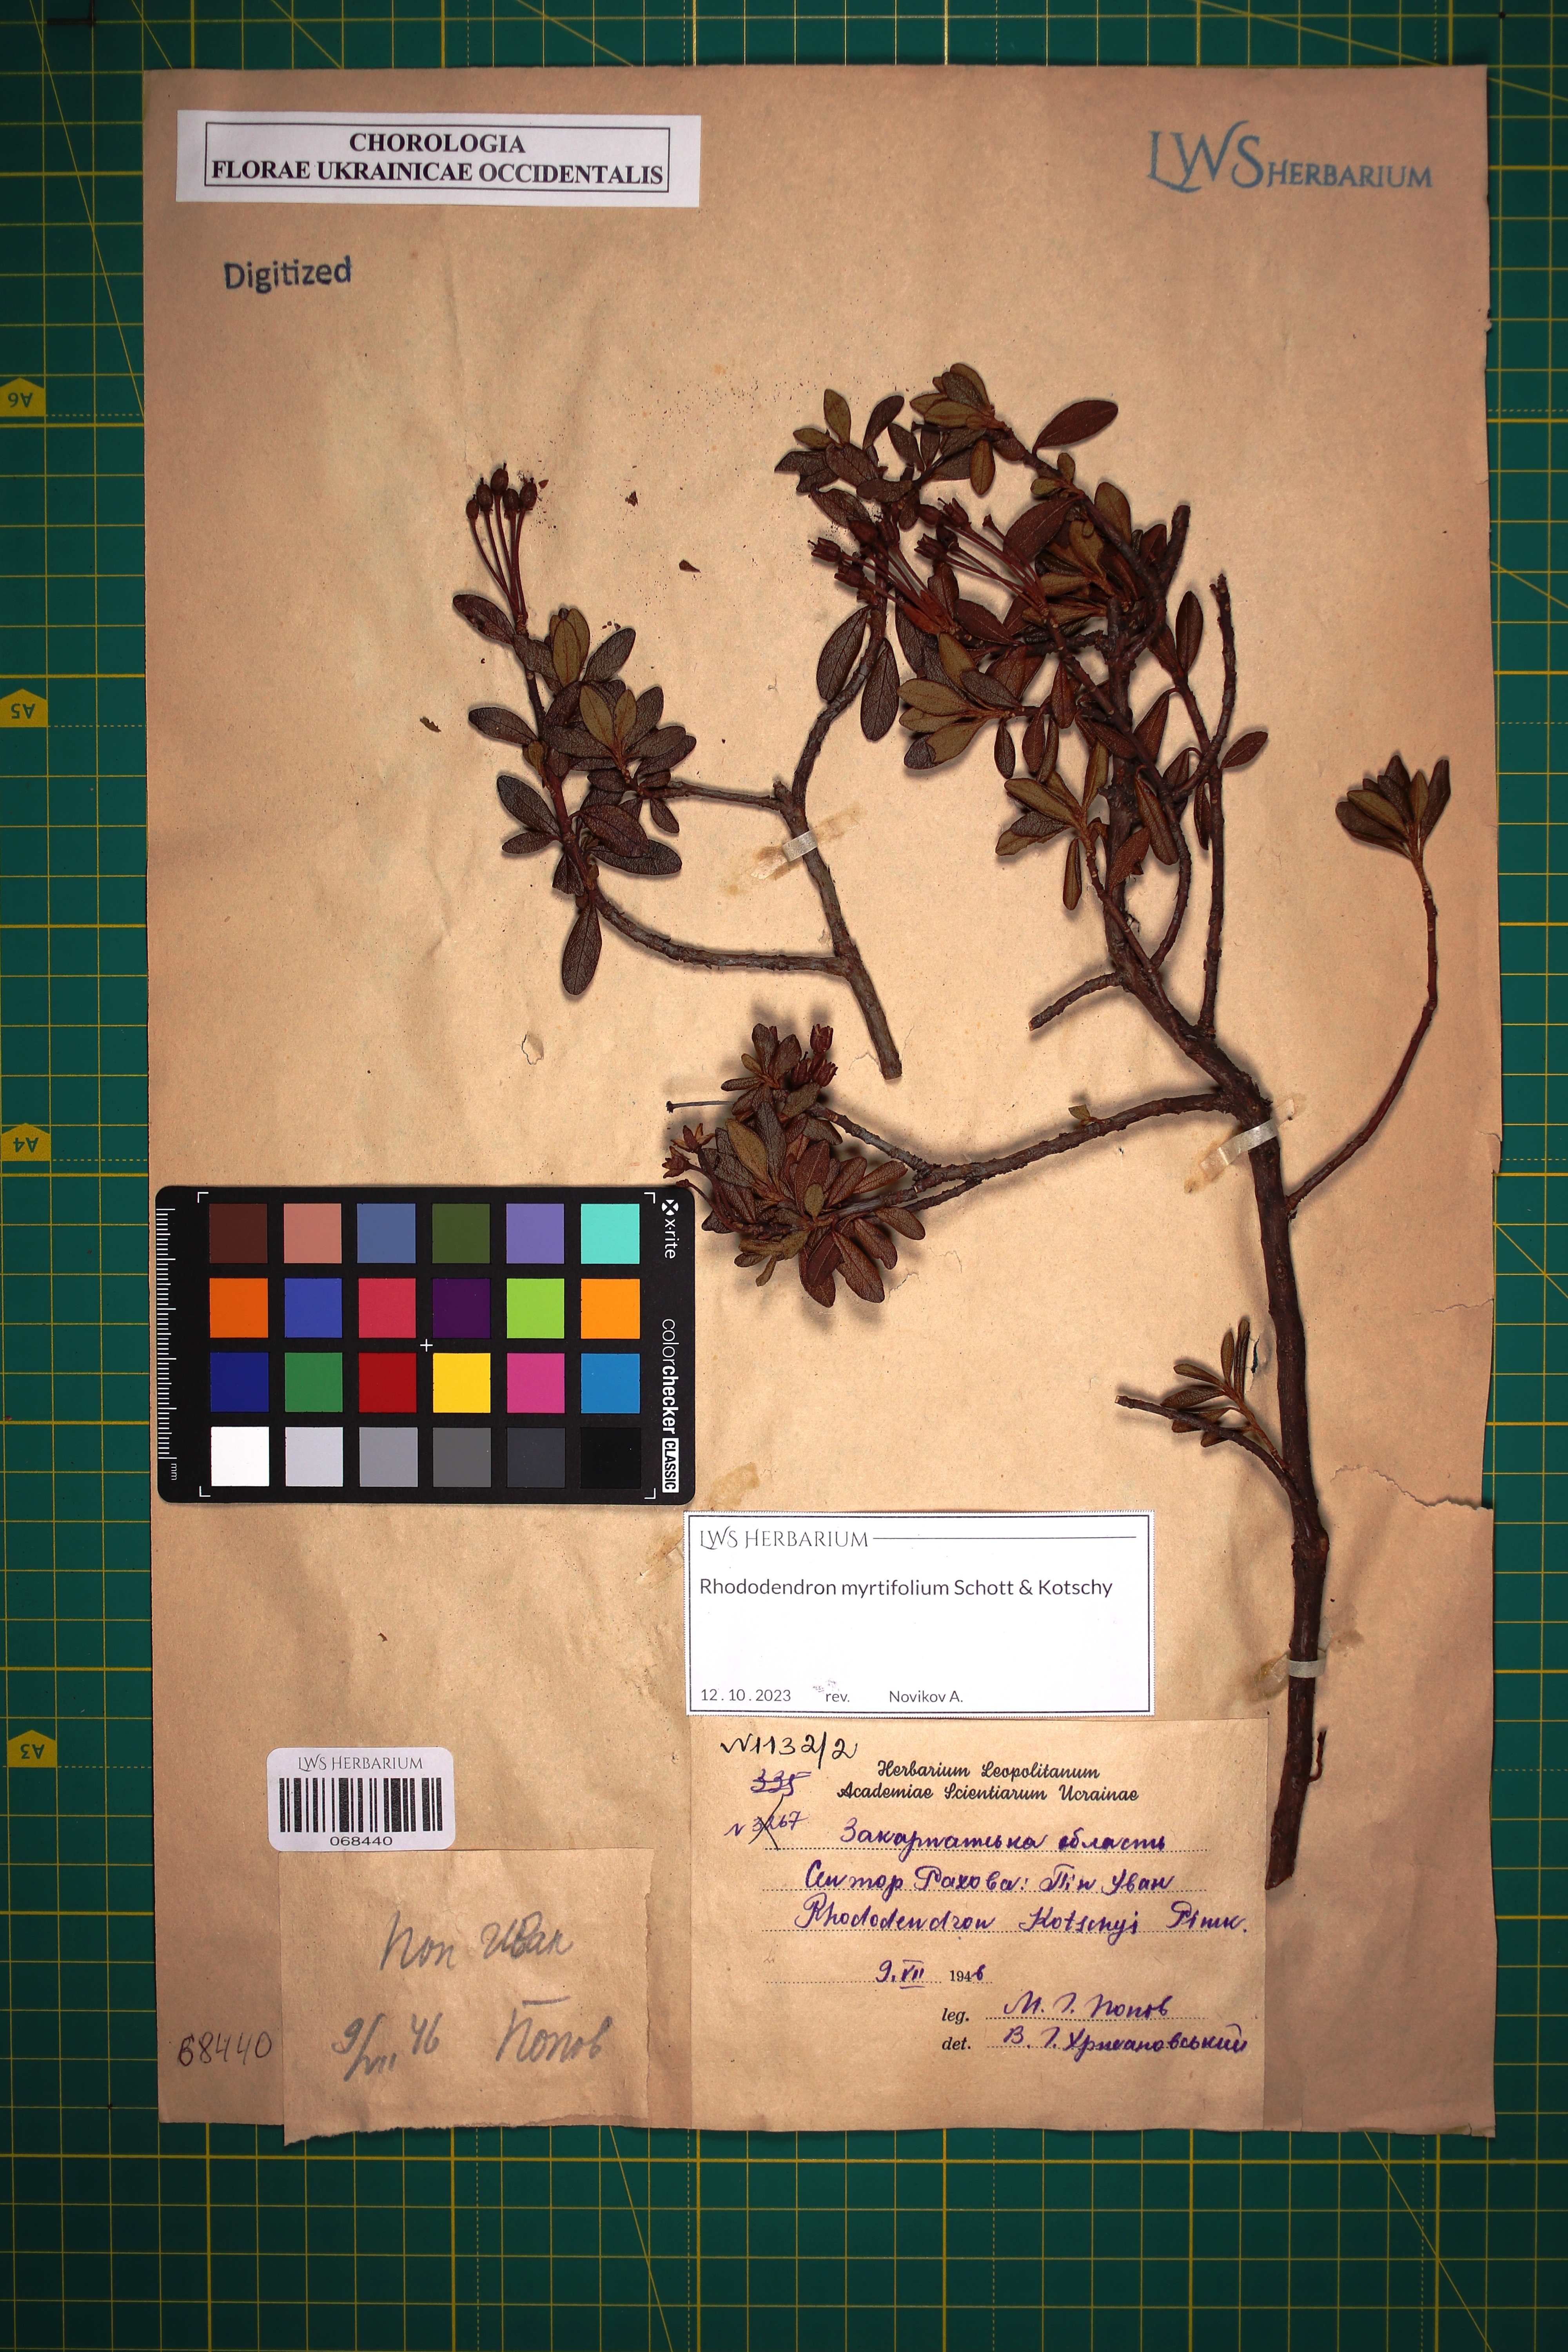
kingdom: Plantae
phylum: Tracheophyta
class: Magnoliopsida
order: Ericales
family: Ericaceae
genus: Rhododendron
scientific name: Rhododendron kotschyi
